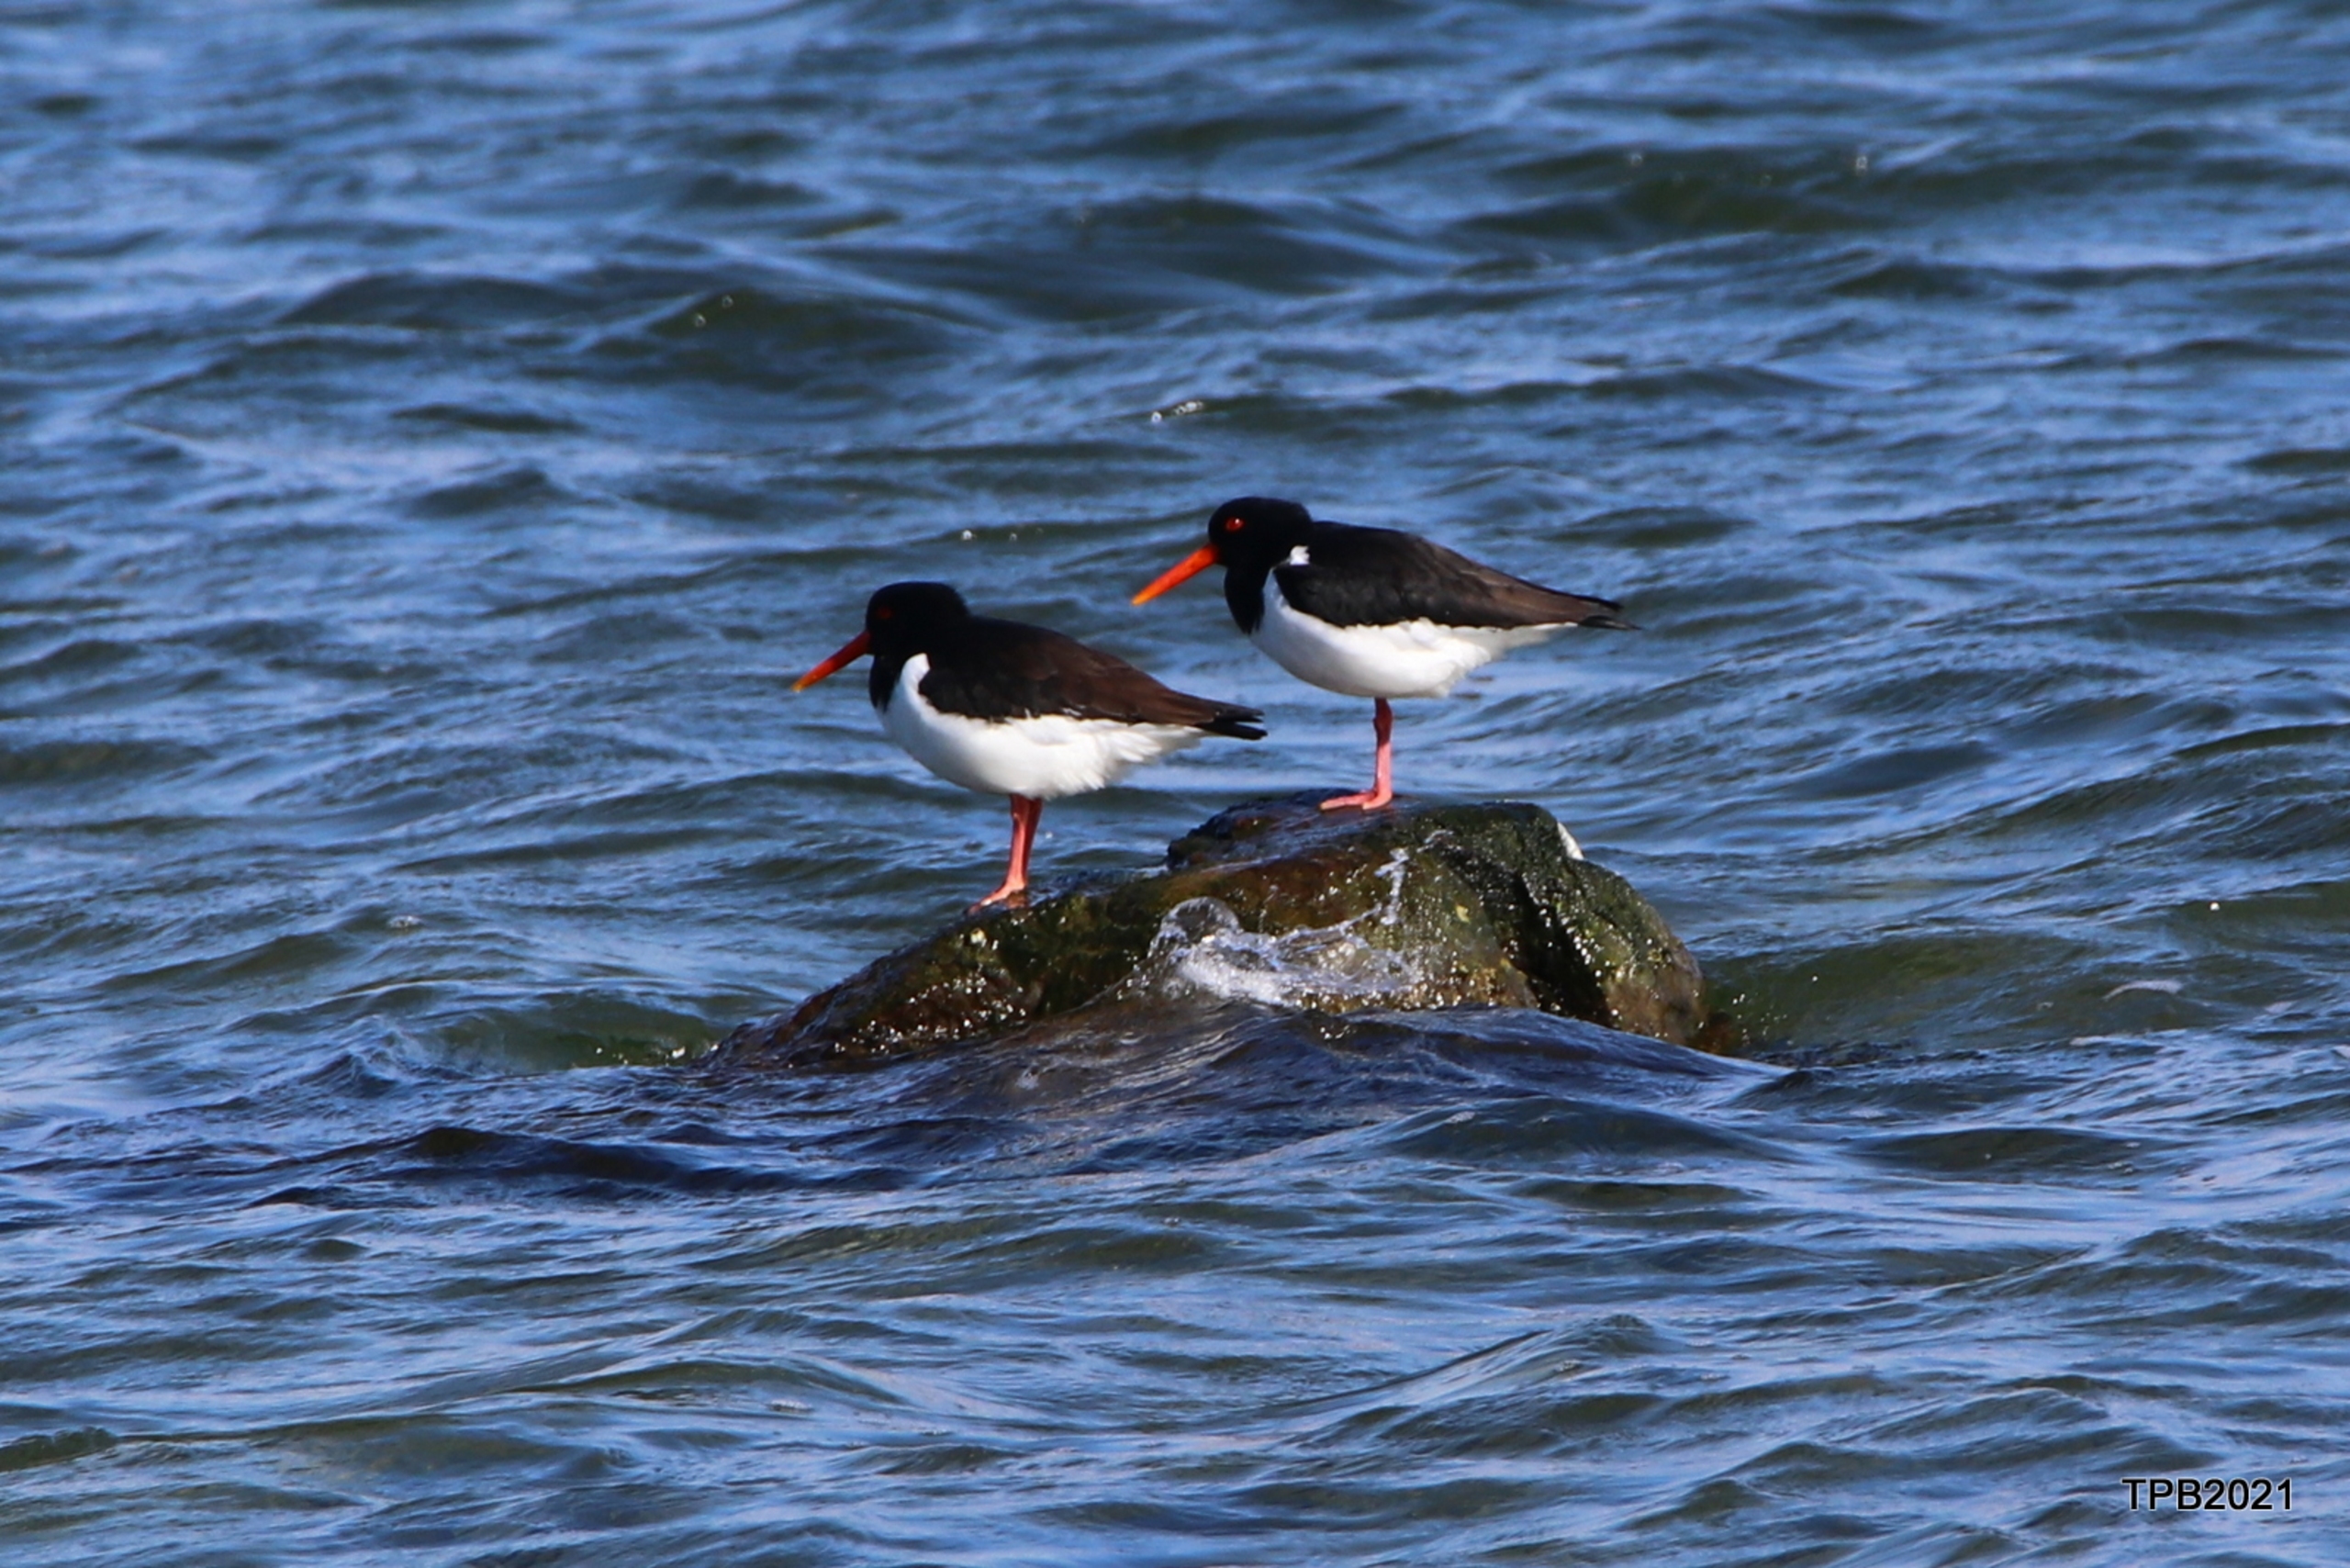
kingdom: Animalia
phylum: Chordata
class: Aves
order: Charadriiformes
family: Haematopodidae
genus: Haematopus
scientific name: Haematopus ostralegus
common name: Strandskade
